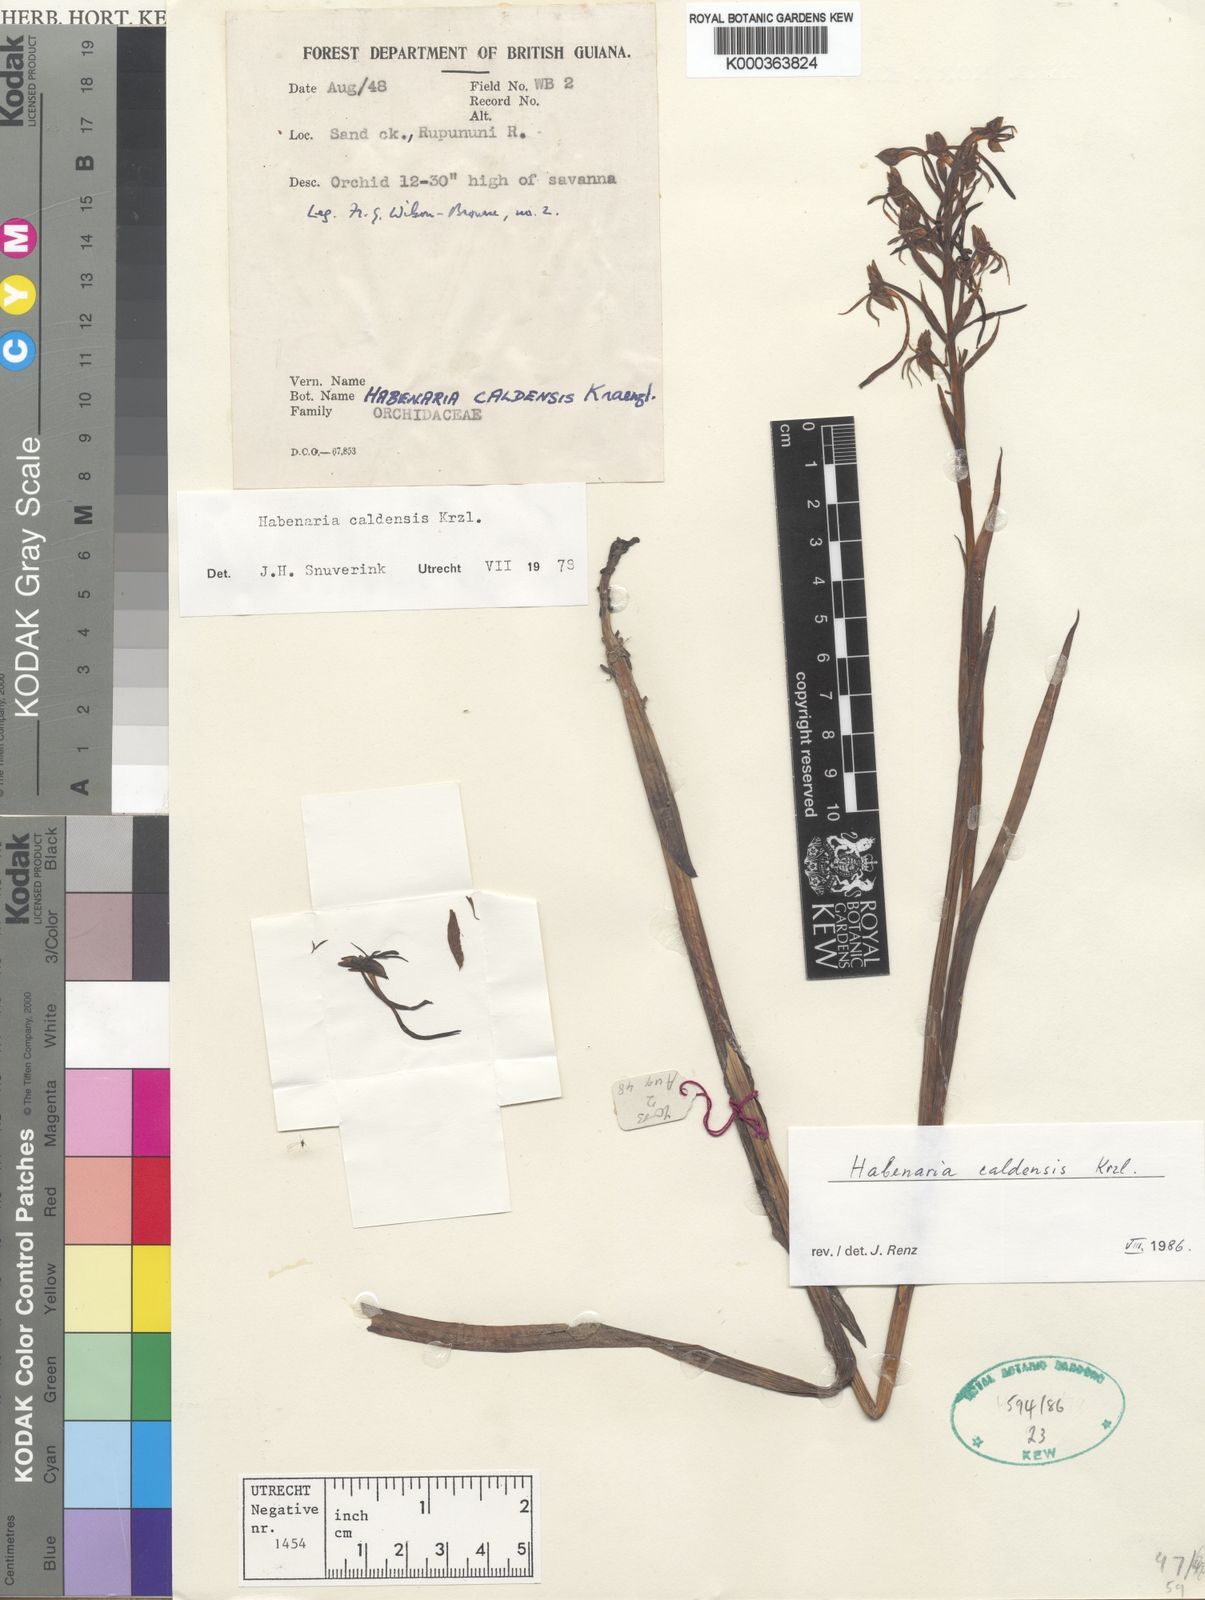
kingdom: Plantae
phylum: Tracheophyta
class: Liliopsida
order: Asparagales
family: Orchidaceae
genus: Habenaria
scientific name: Habenaria caldensis
